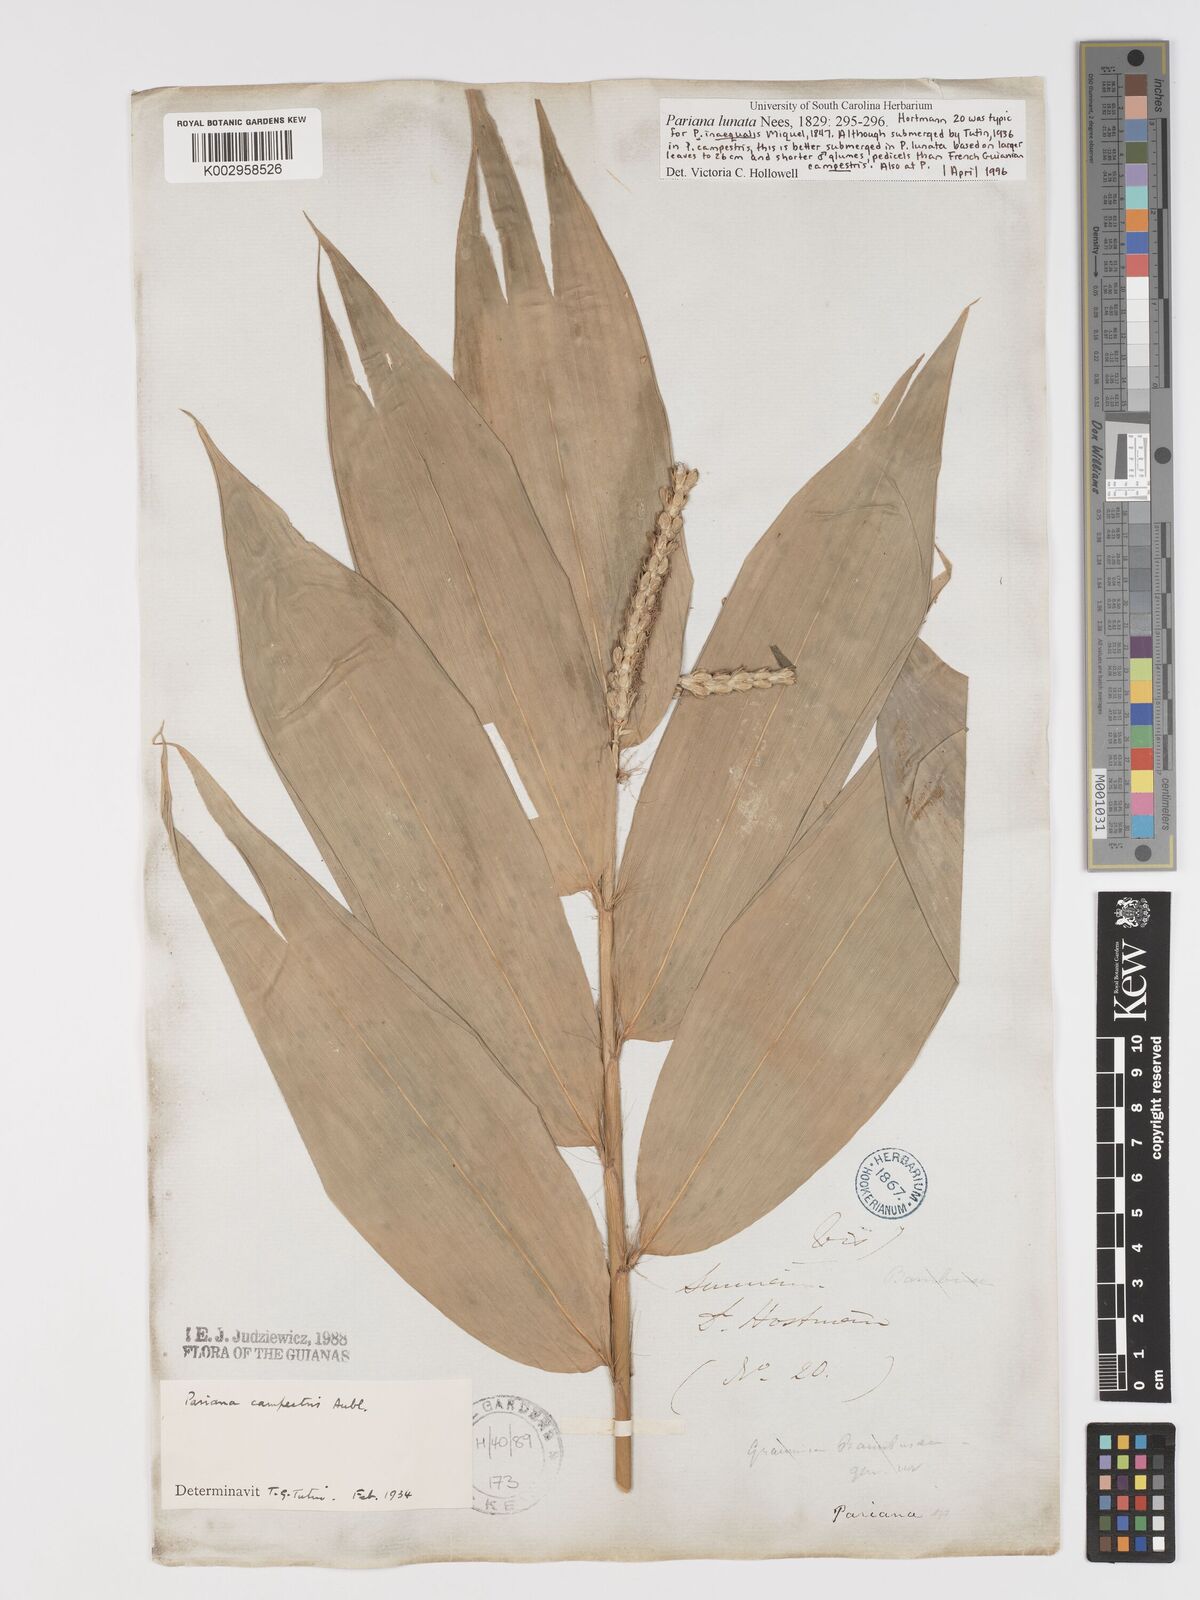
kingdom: Plantae
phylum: Tracheophyta
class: Liliopsida
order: Poales
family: Poaceae
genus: Pariana
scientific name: Pariana campestris
